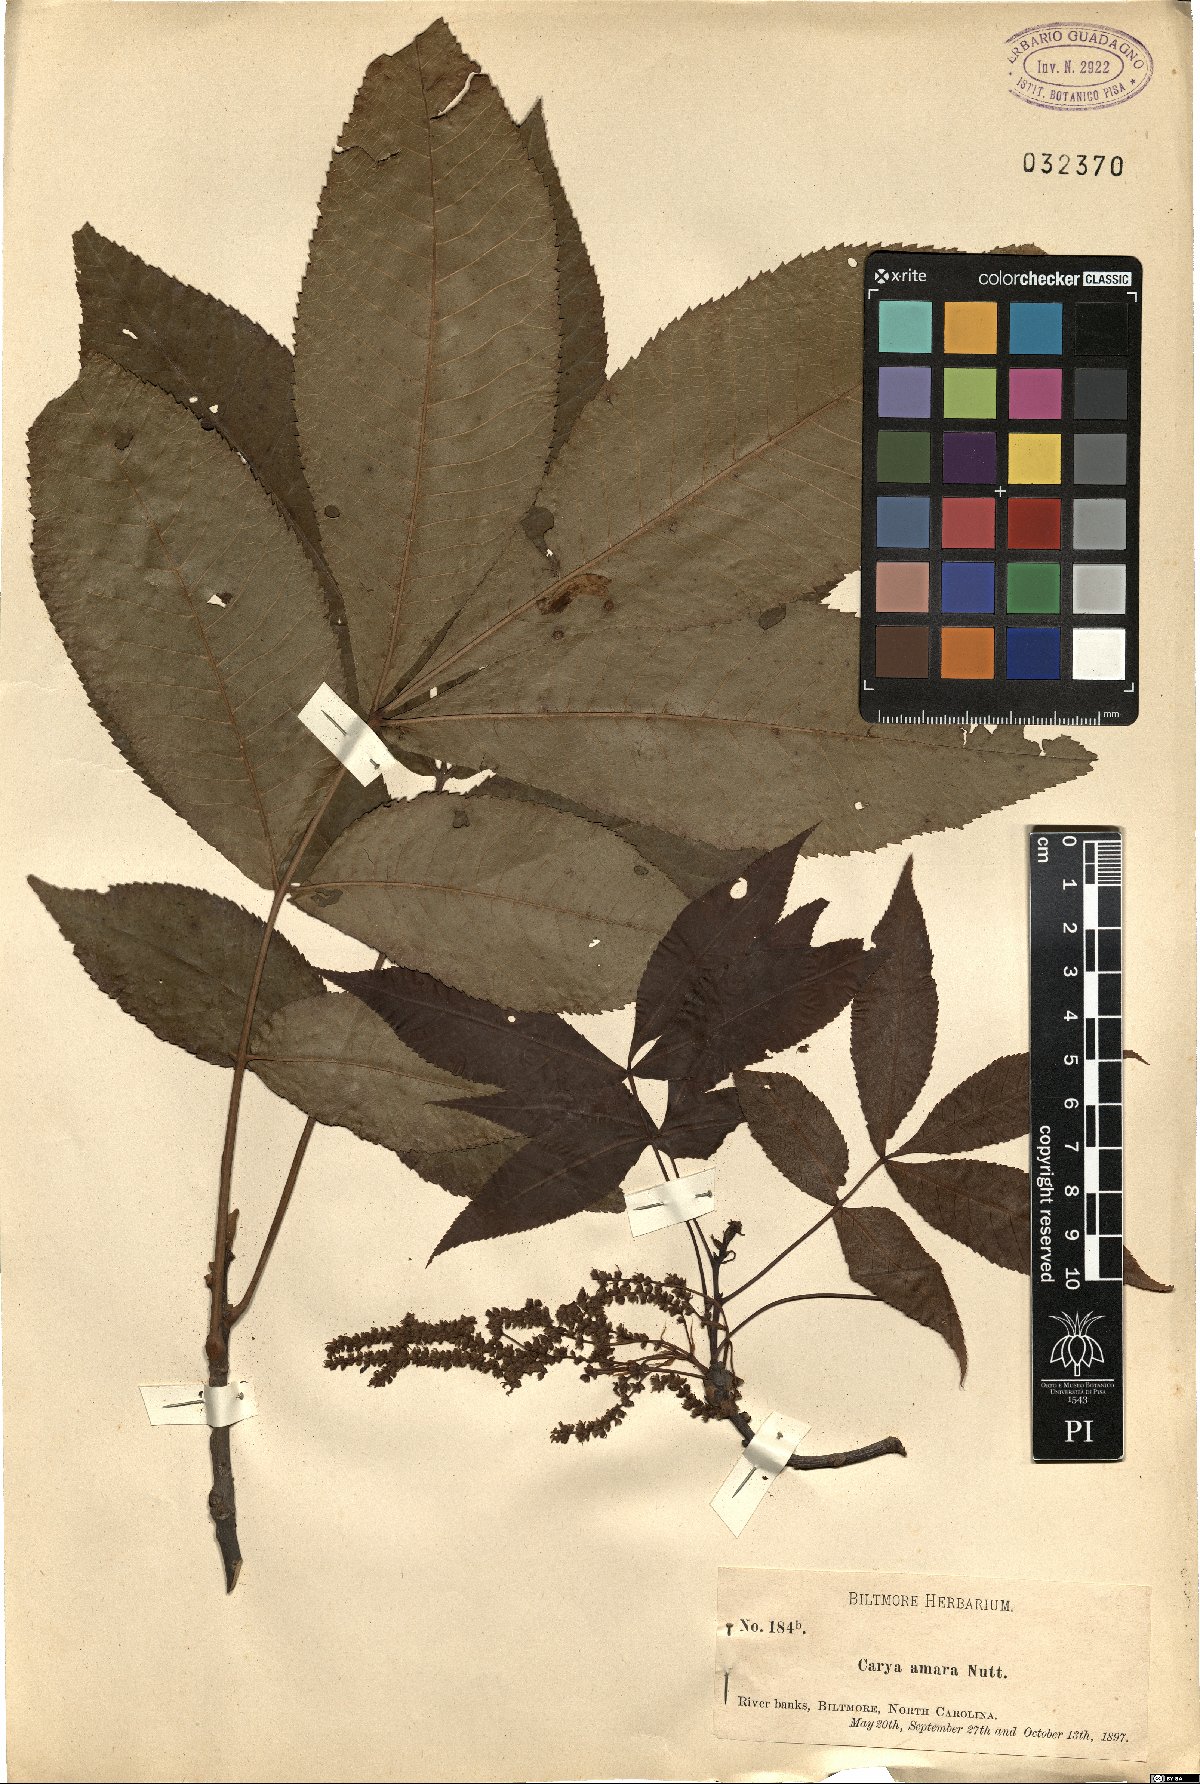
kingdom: Plantae
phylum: Tracheophyta
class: Magnoliopsida
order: Fagales
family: Juglandaceae
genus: Carya
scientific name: Carya cordiformis
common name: Bitternut hickory
